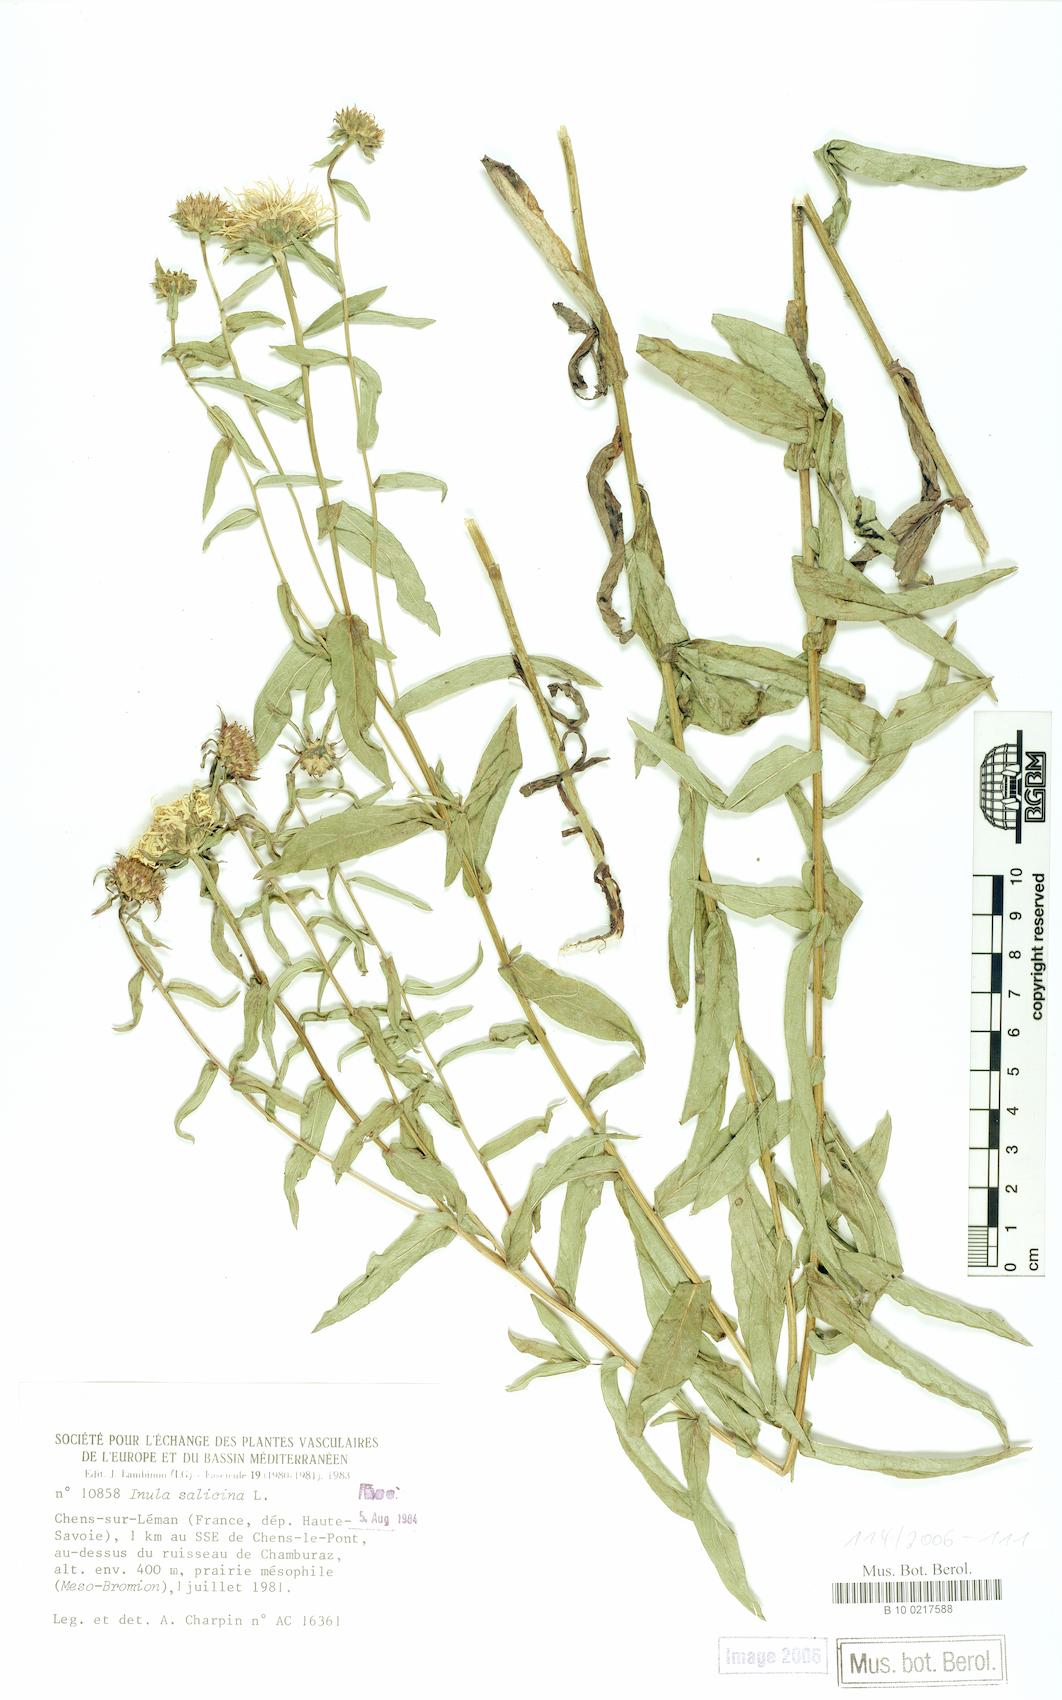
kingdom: Plantae
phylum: Tracheophyta
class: Magnoliopsida
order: Asterales
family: Asteraceae
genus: Pentanema
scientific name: Pentanema salicinum
